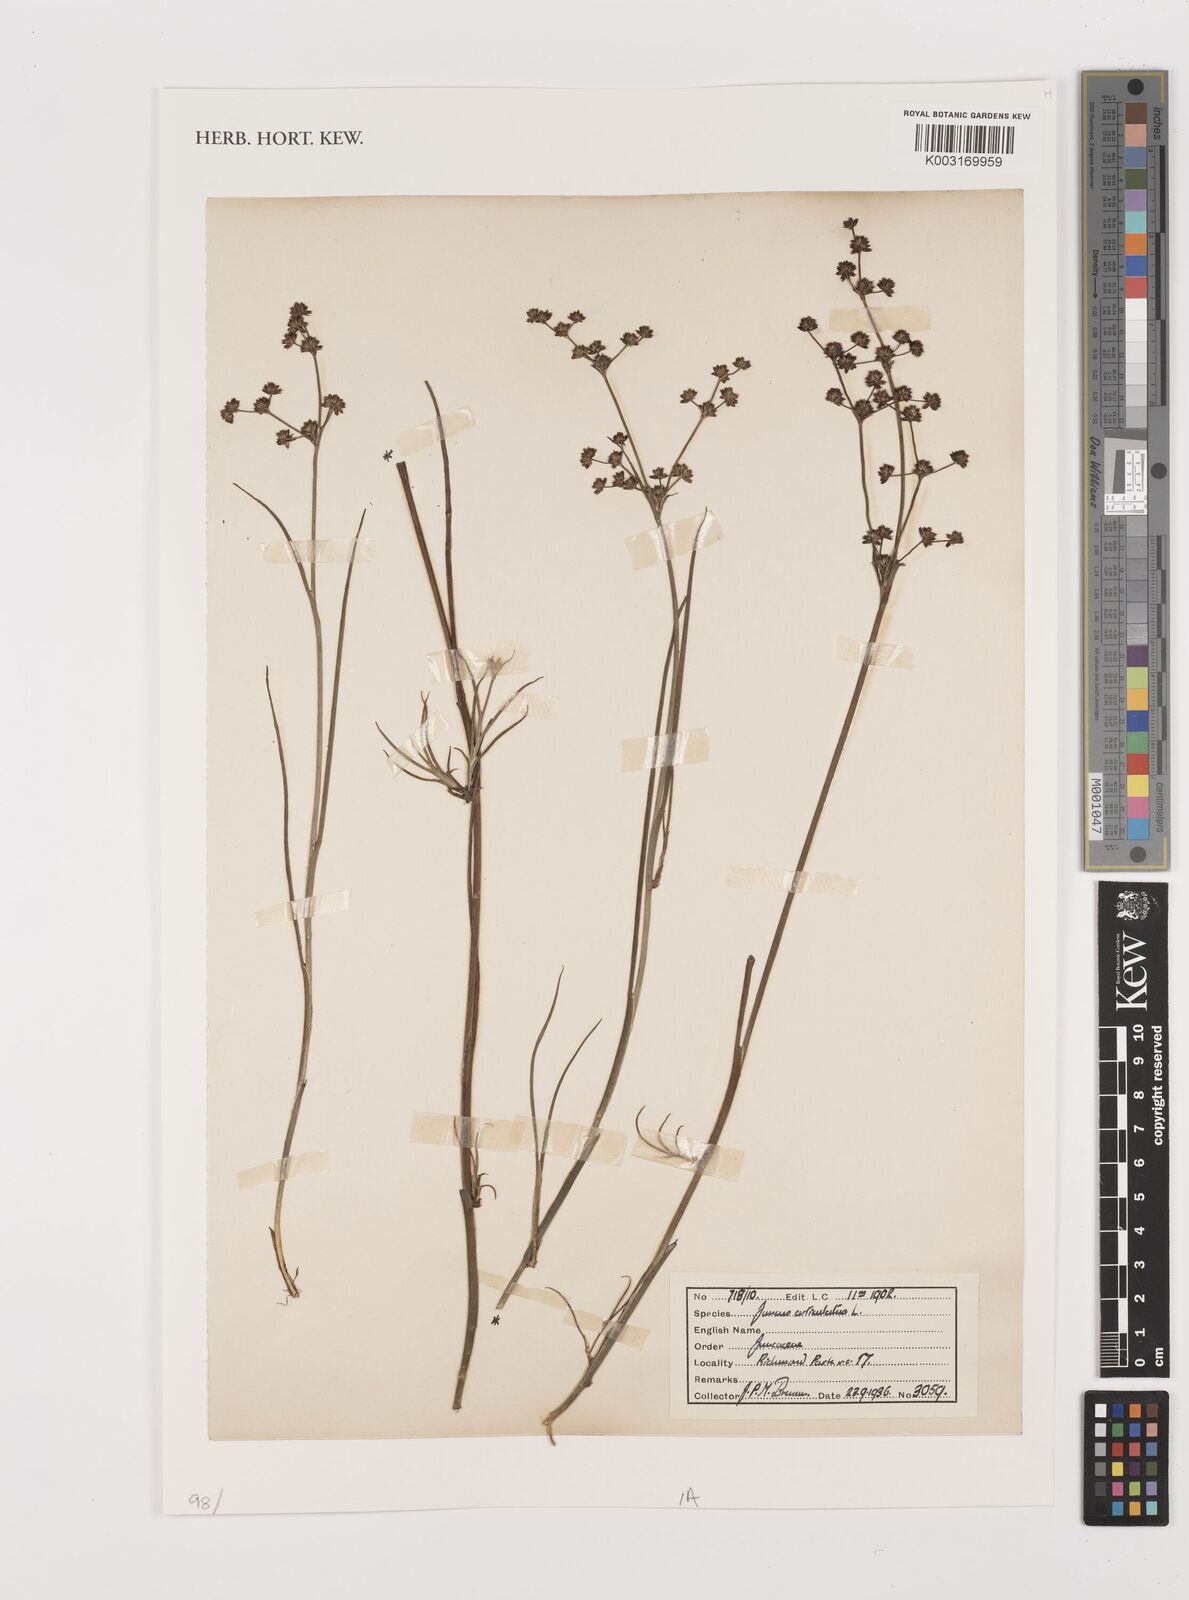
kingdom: Plantae
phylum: Tracheophyta
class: Liliopsida
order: Poales
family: Juncaceae
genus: Juncus
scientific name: Juncus articulatus
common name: Jointed rush
